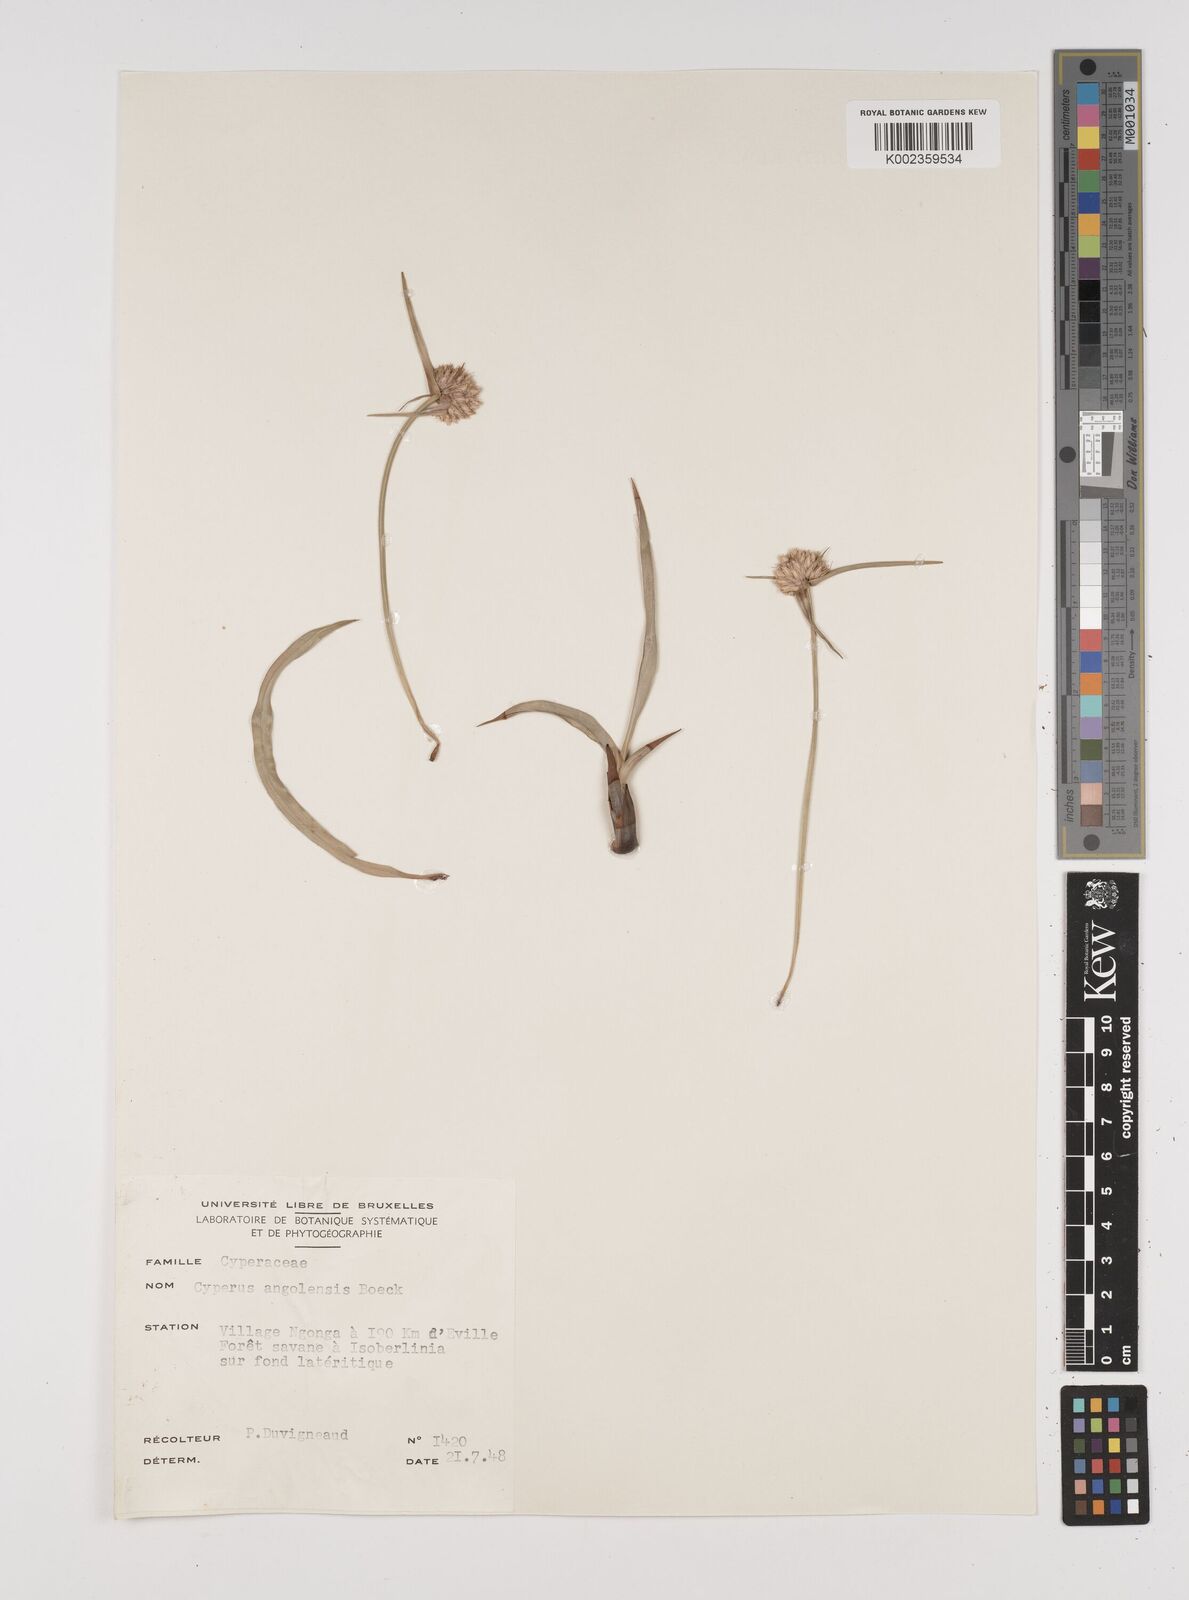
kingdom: Plantae
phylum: Tracheophyta
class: Liliopsida
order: Poales
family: Cyperaceae
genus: Cyperus
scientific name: Cyperus angolensis
